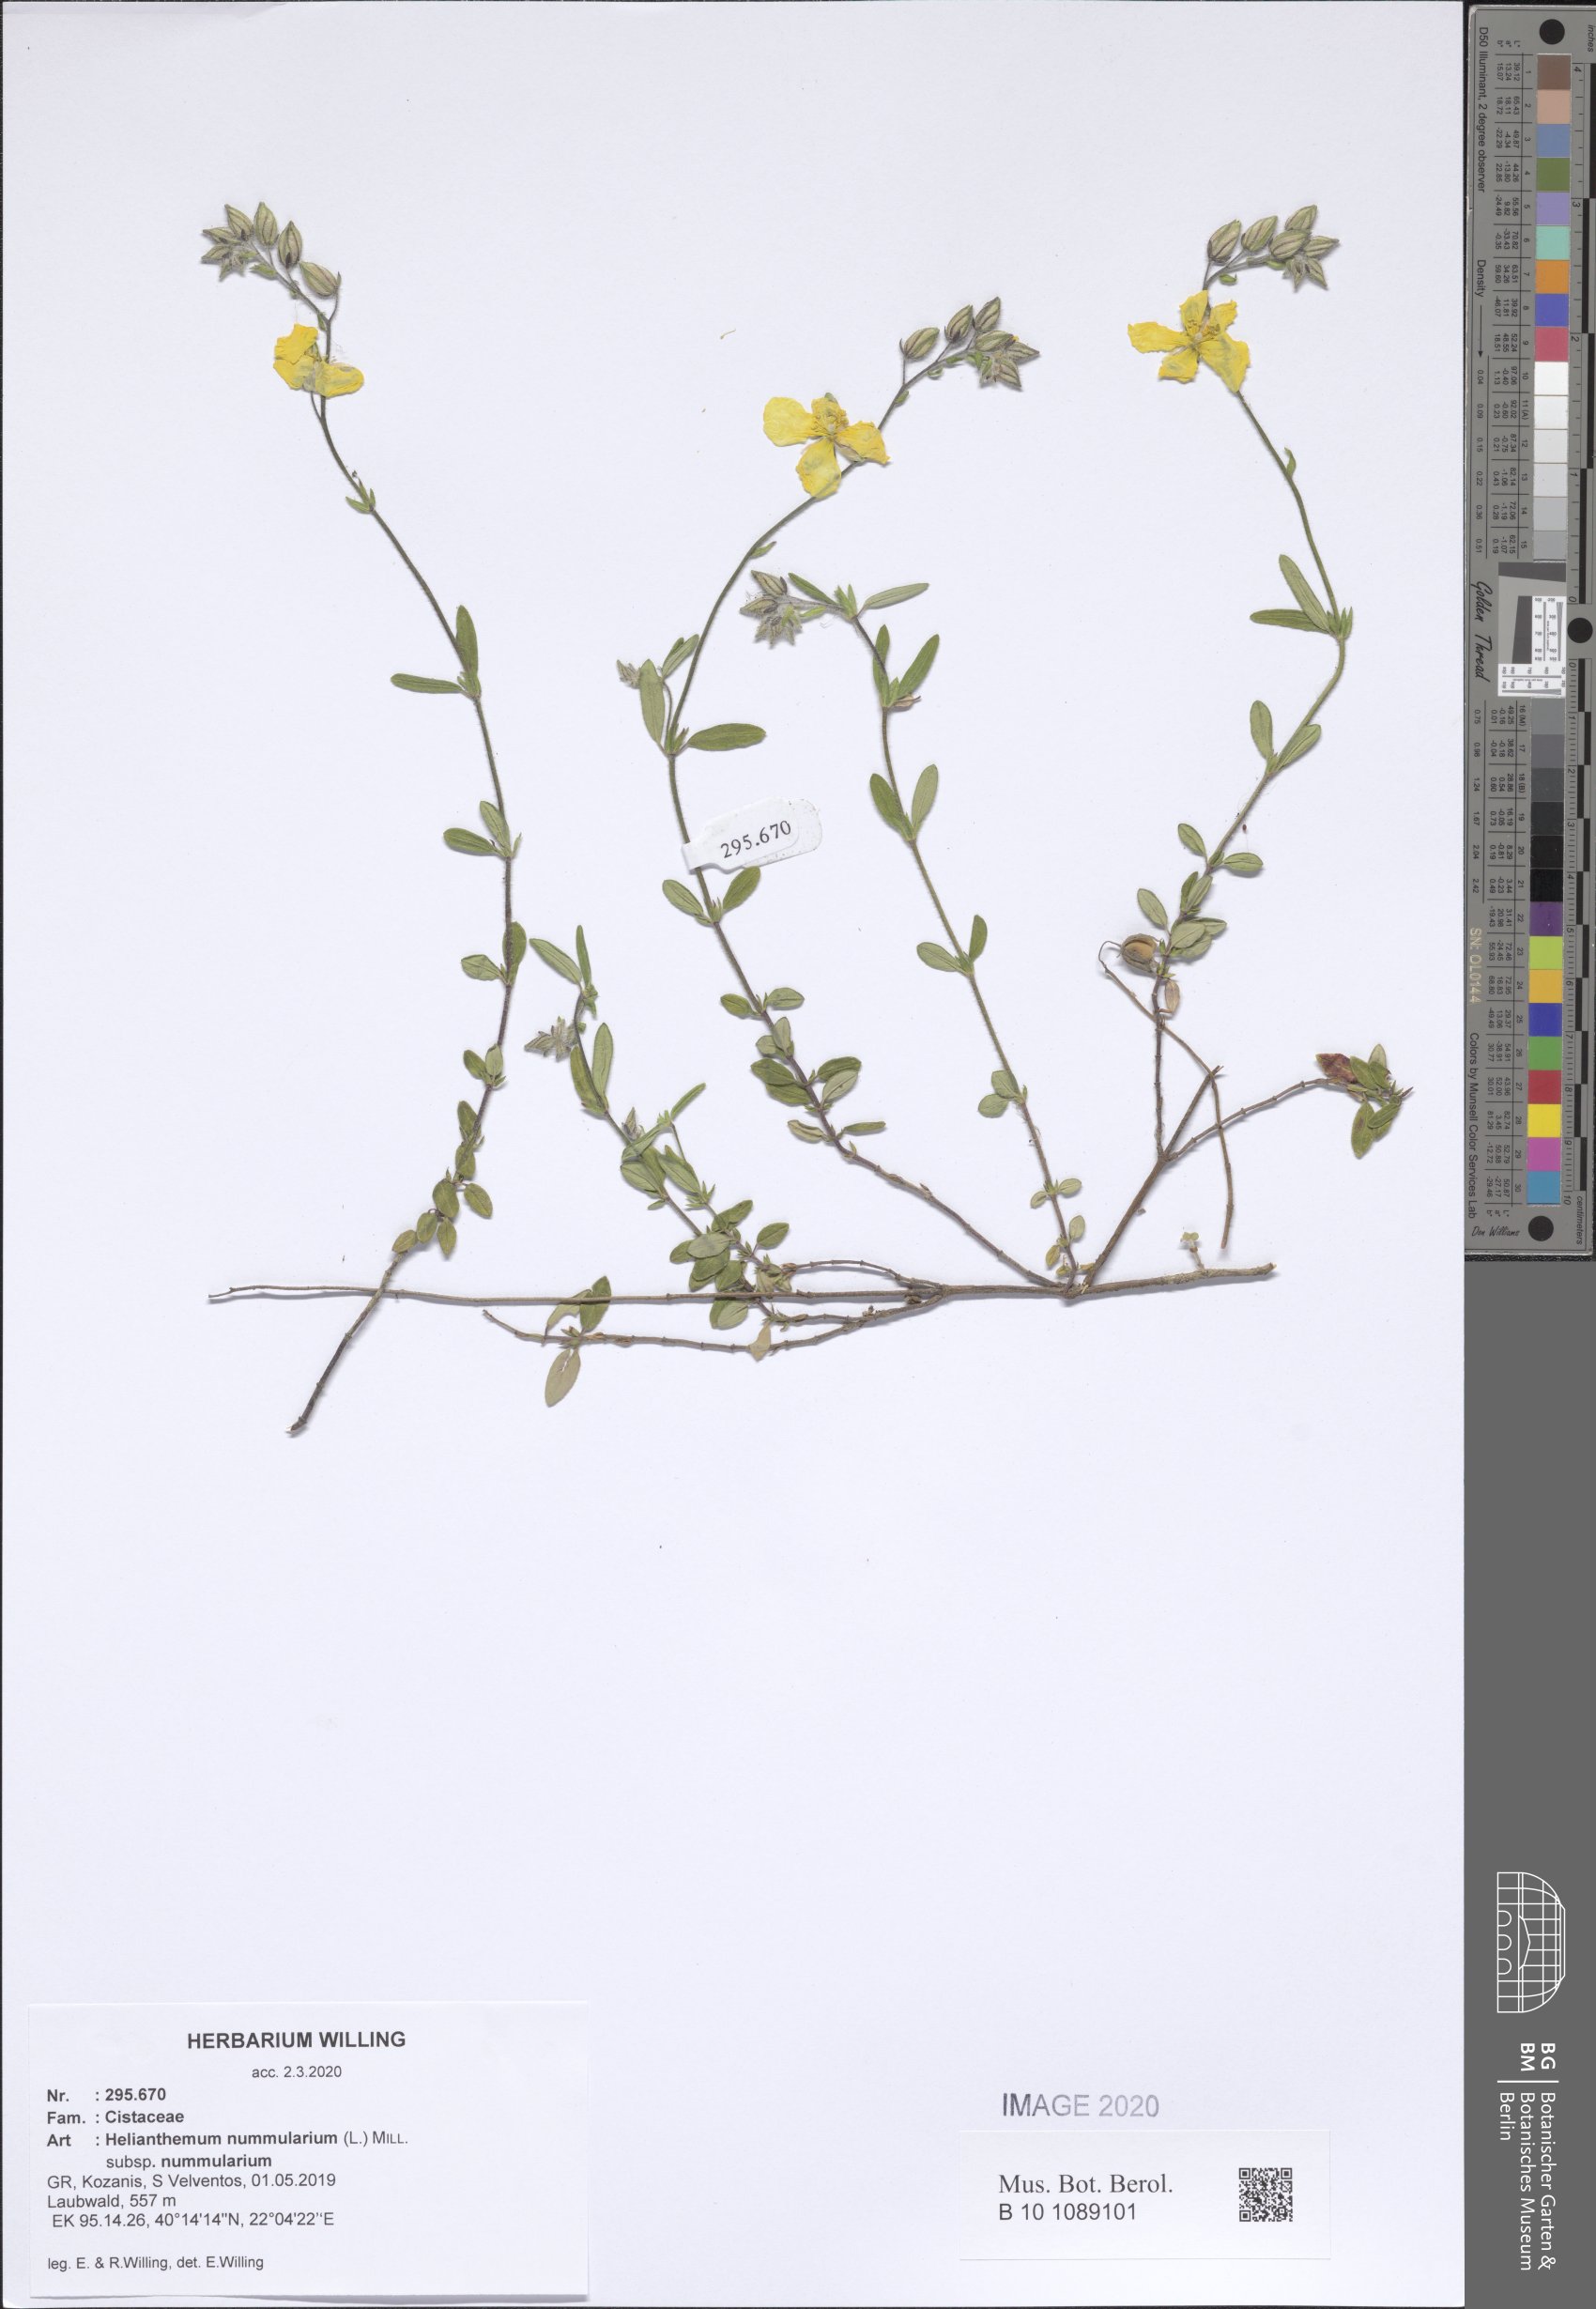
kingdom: Plantae
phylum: Tracheophyta
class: Magnoliopsida
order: Malvales
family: Cistaceae
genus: Helianthemum
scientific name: Helianthemum nummularium
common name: Common rock-rose
